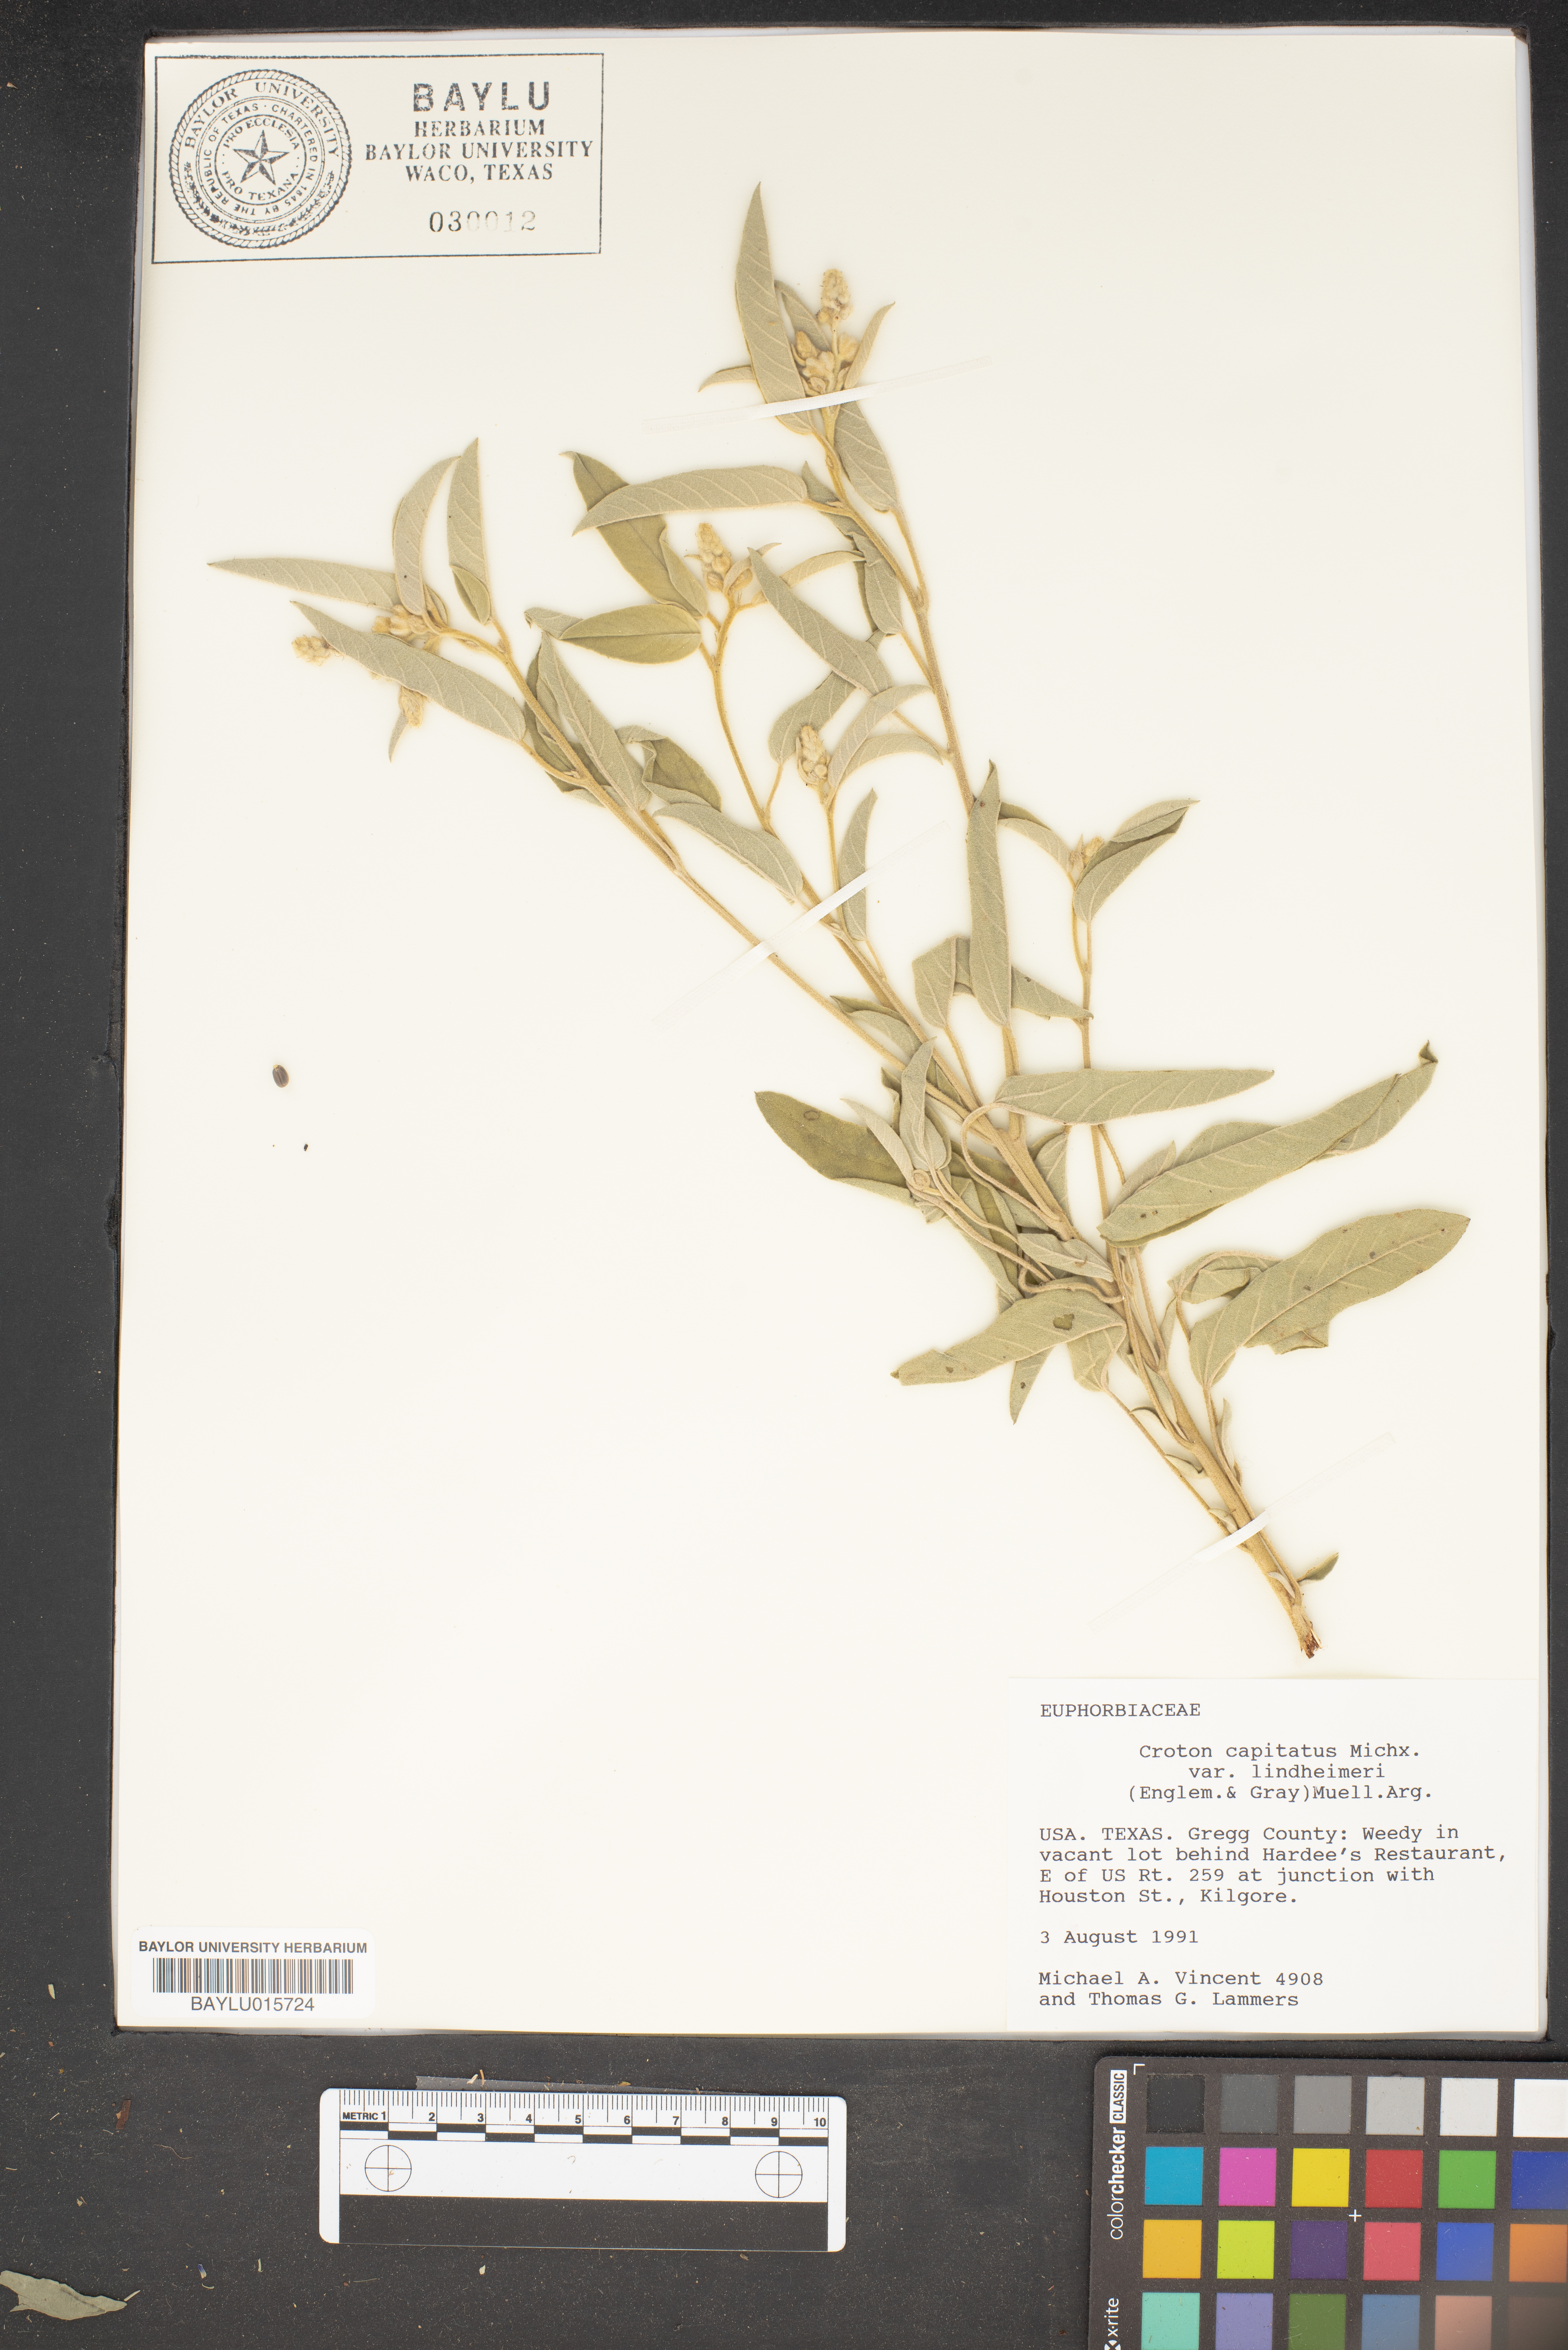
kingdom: Plantae
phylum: Tracheophyta
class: Magnoliopsida
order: Malpighiales
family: Euphorbiaceae
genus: Croton
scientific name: Croton lindheimeri
